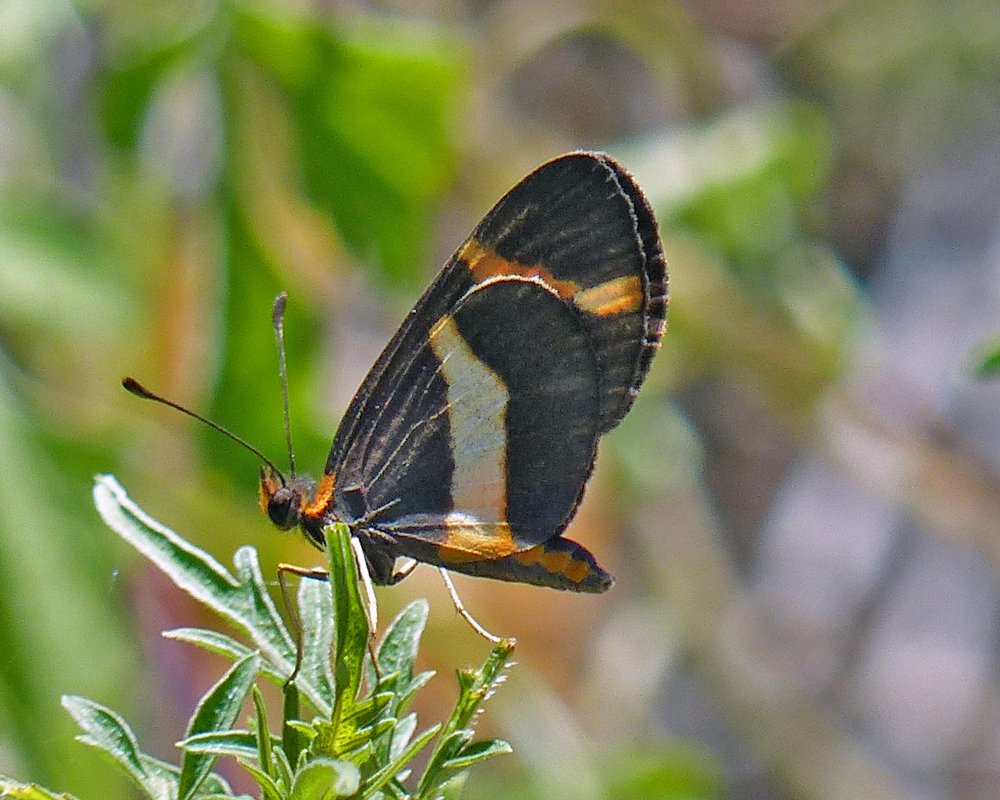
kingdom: Animalia
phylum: Arthropoda
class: Insecta
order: Lepidoptera
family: Nymphalidae
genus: Microtia
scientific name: Microtia elva
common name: Elf
